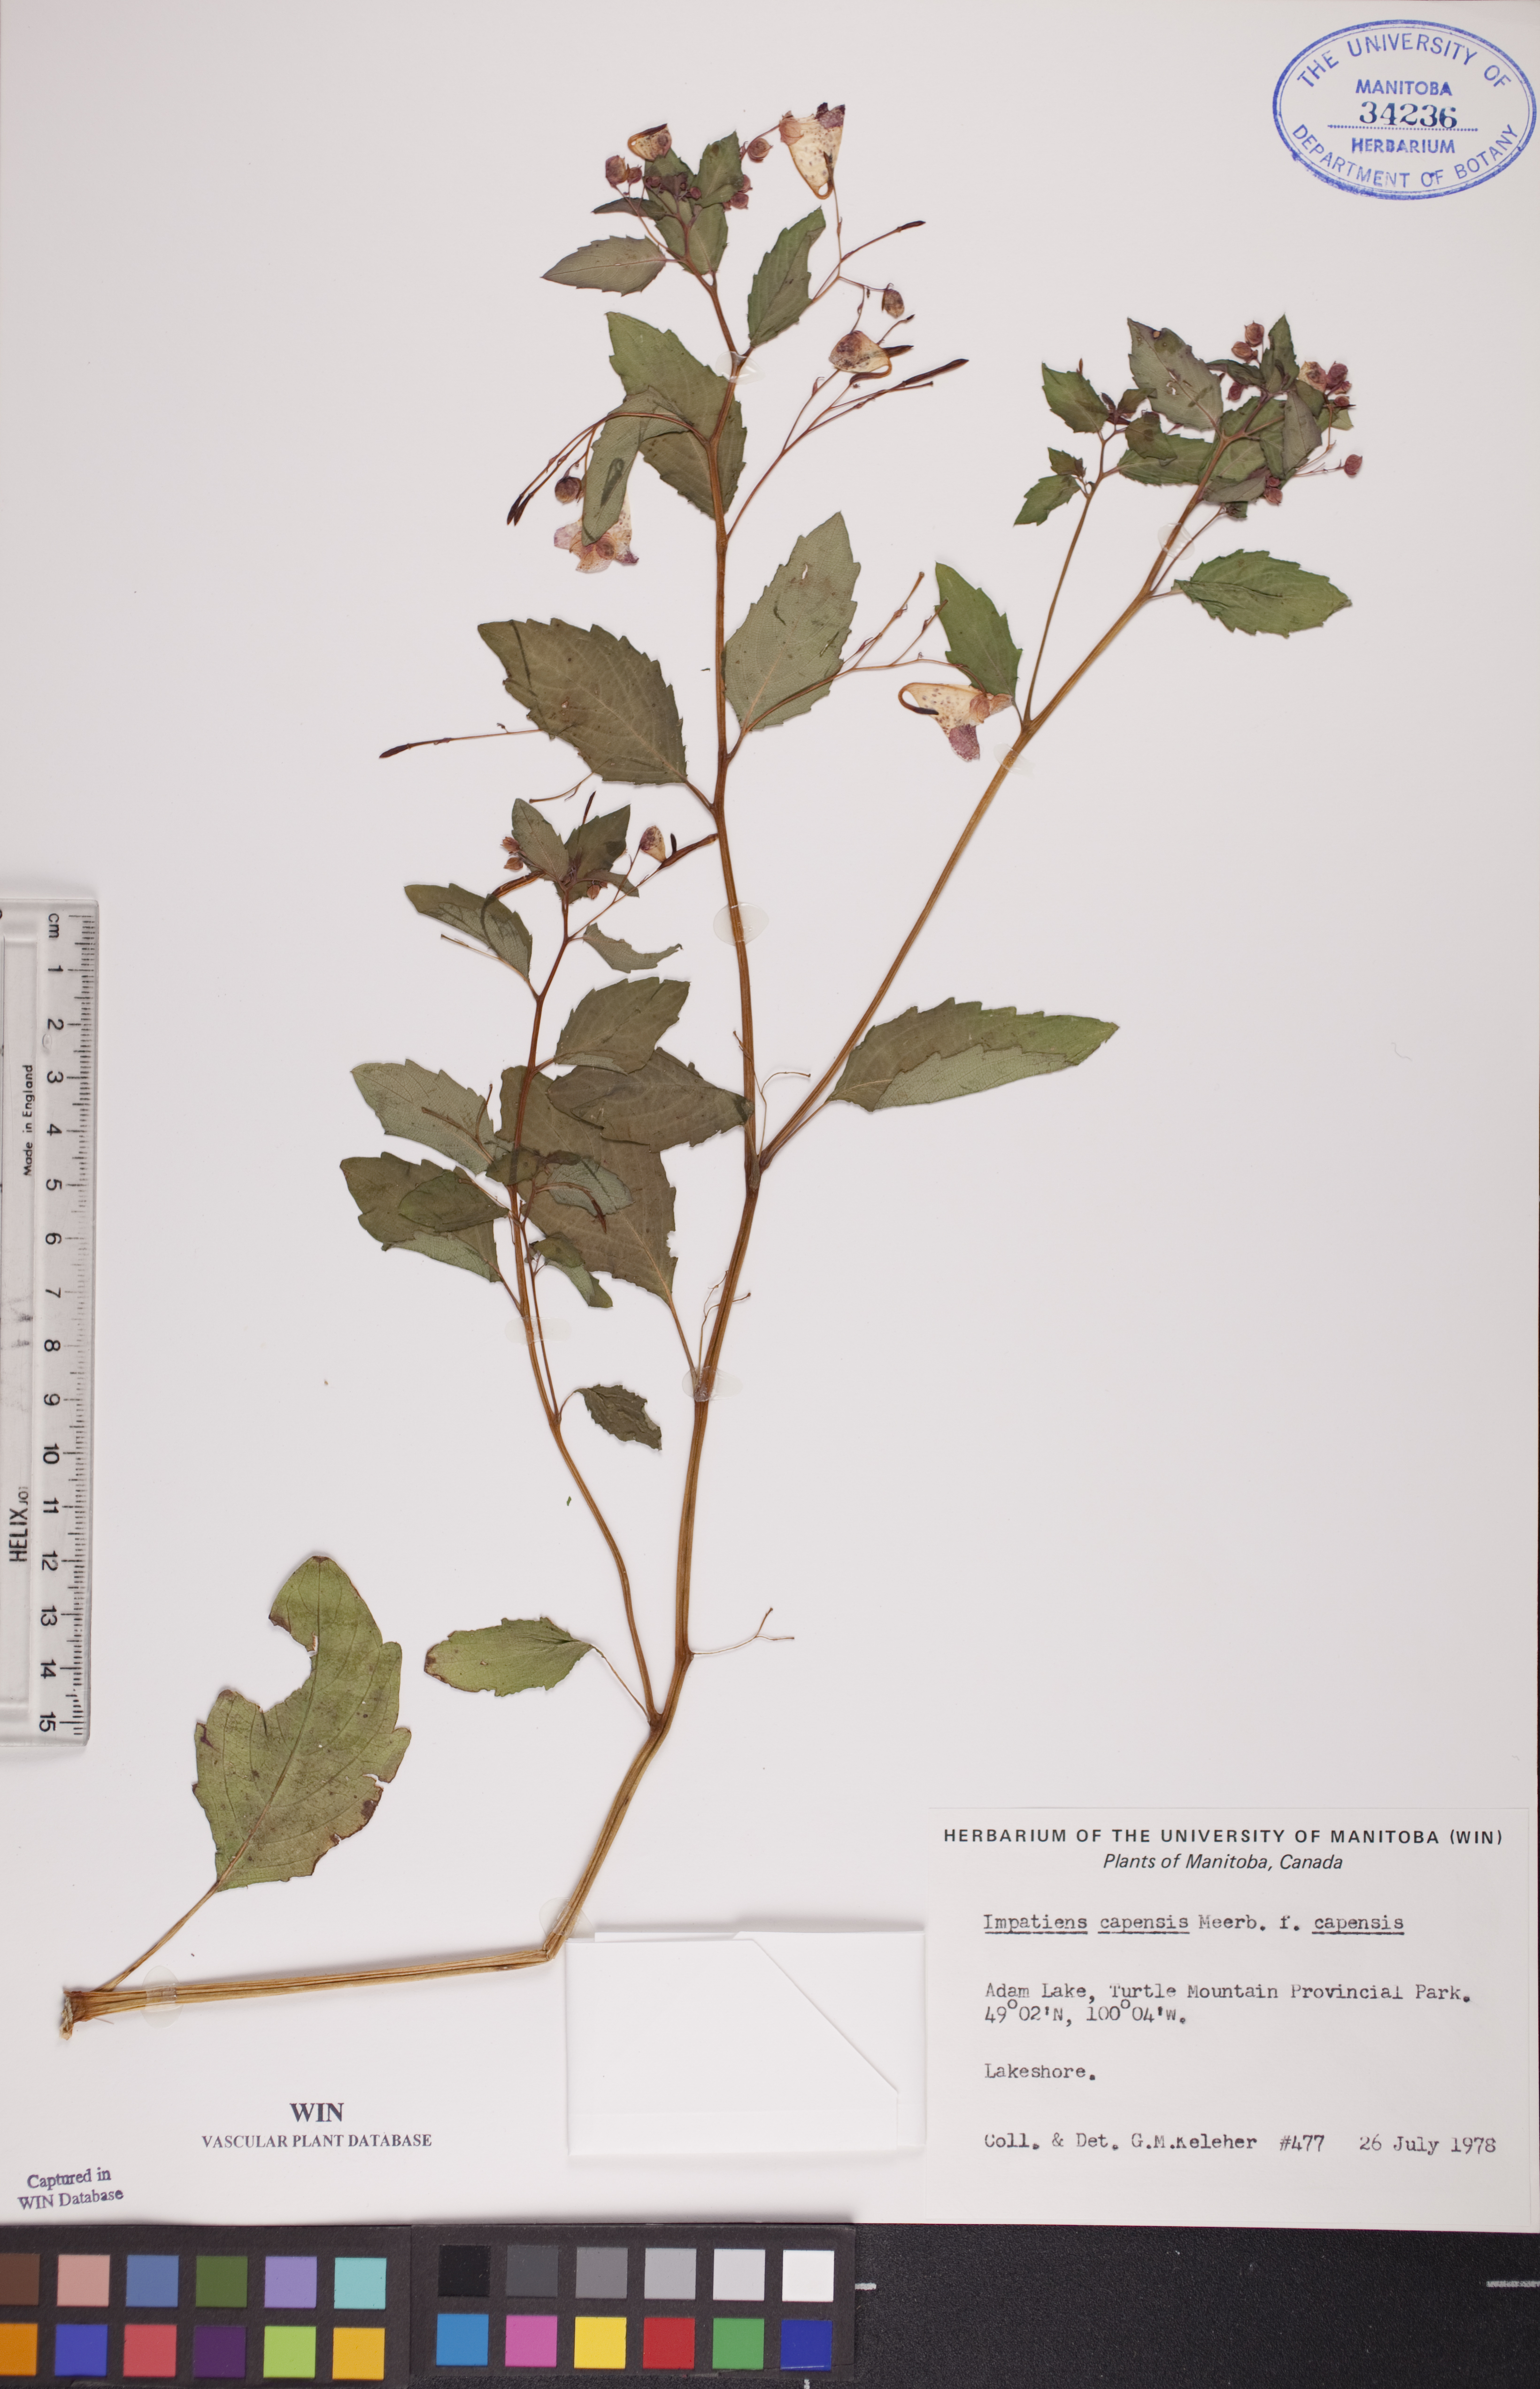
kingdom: Plantae
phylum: Tracheophyta
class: Magnoliopsida
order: Ericales
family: Balsaminaceae
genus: Impatiens
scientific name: Impatiens capensis
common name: Orange balsam
